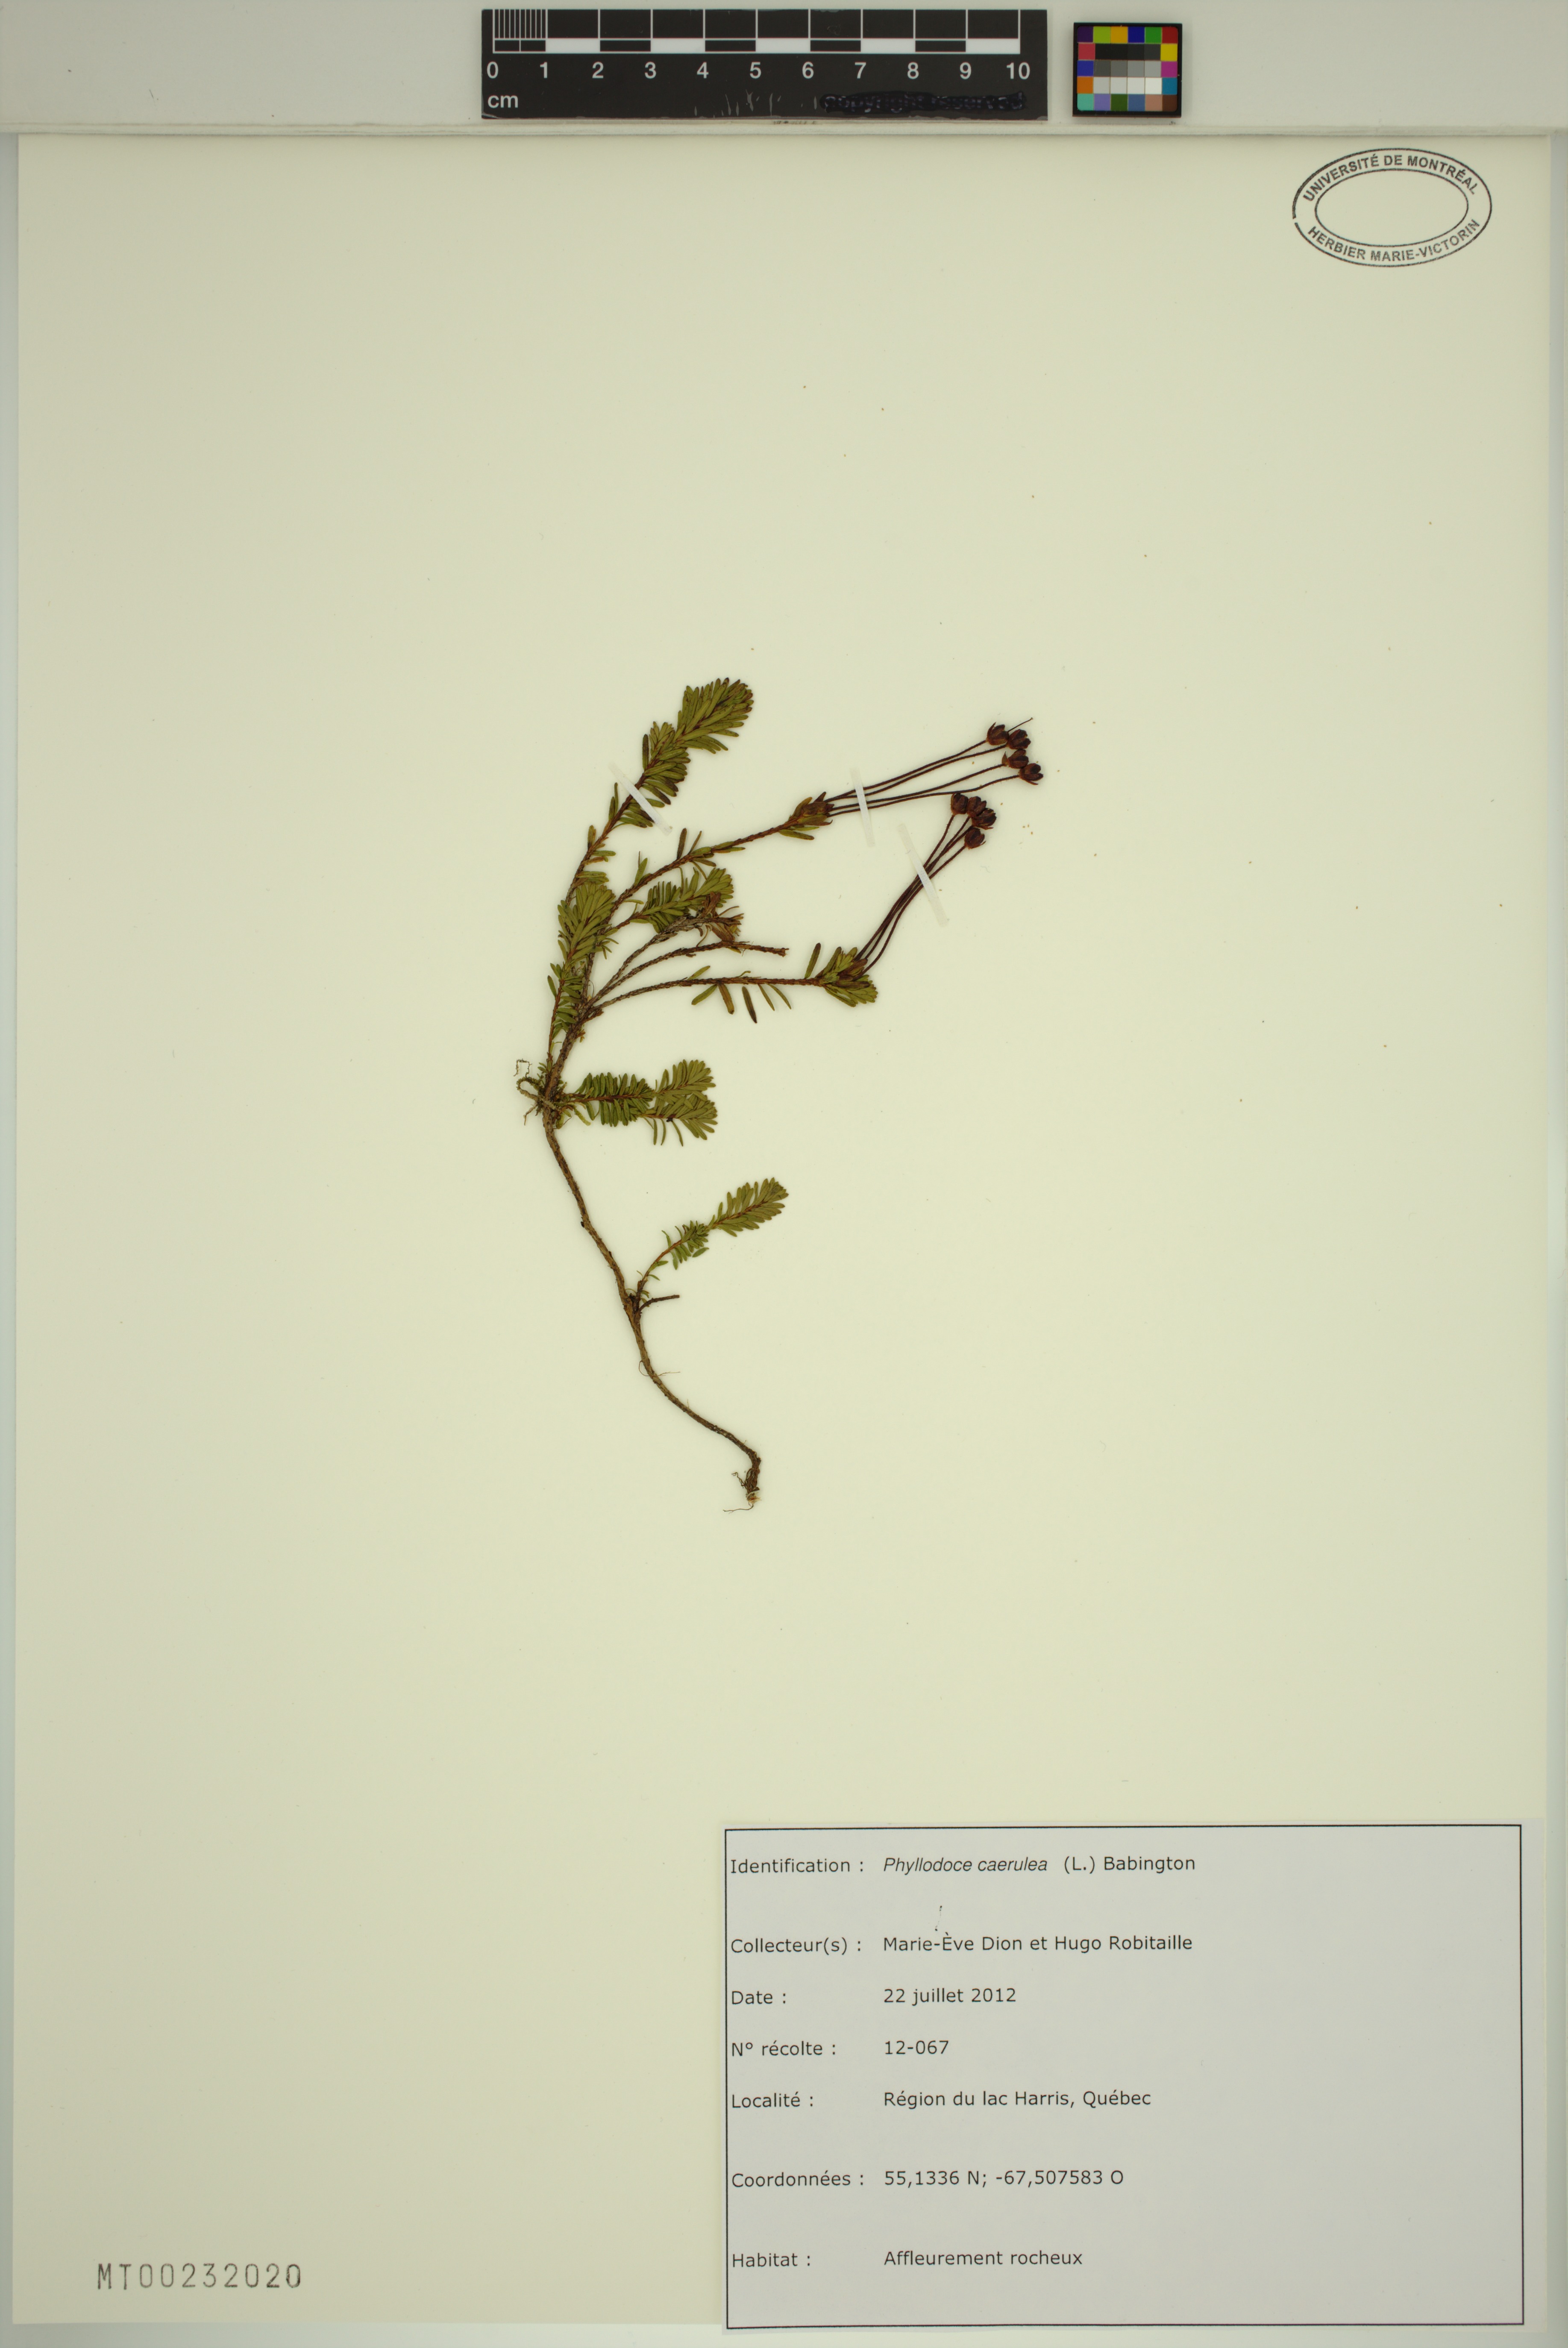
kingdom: Plantae
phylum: Tracheophyta
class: Magnoliopsida
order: Ericales
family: Ericaceae
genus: Phyllodoce
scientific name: Phyllodoce caerulea
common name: Blue heath
